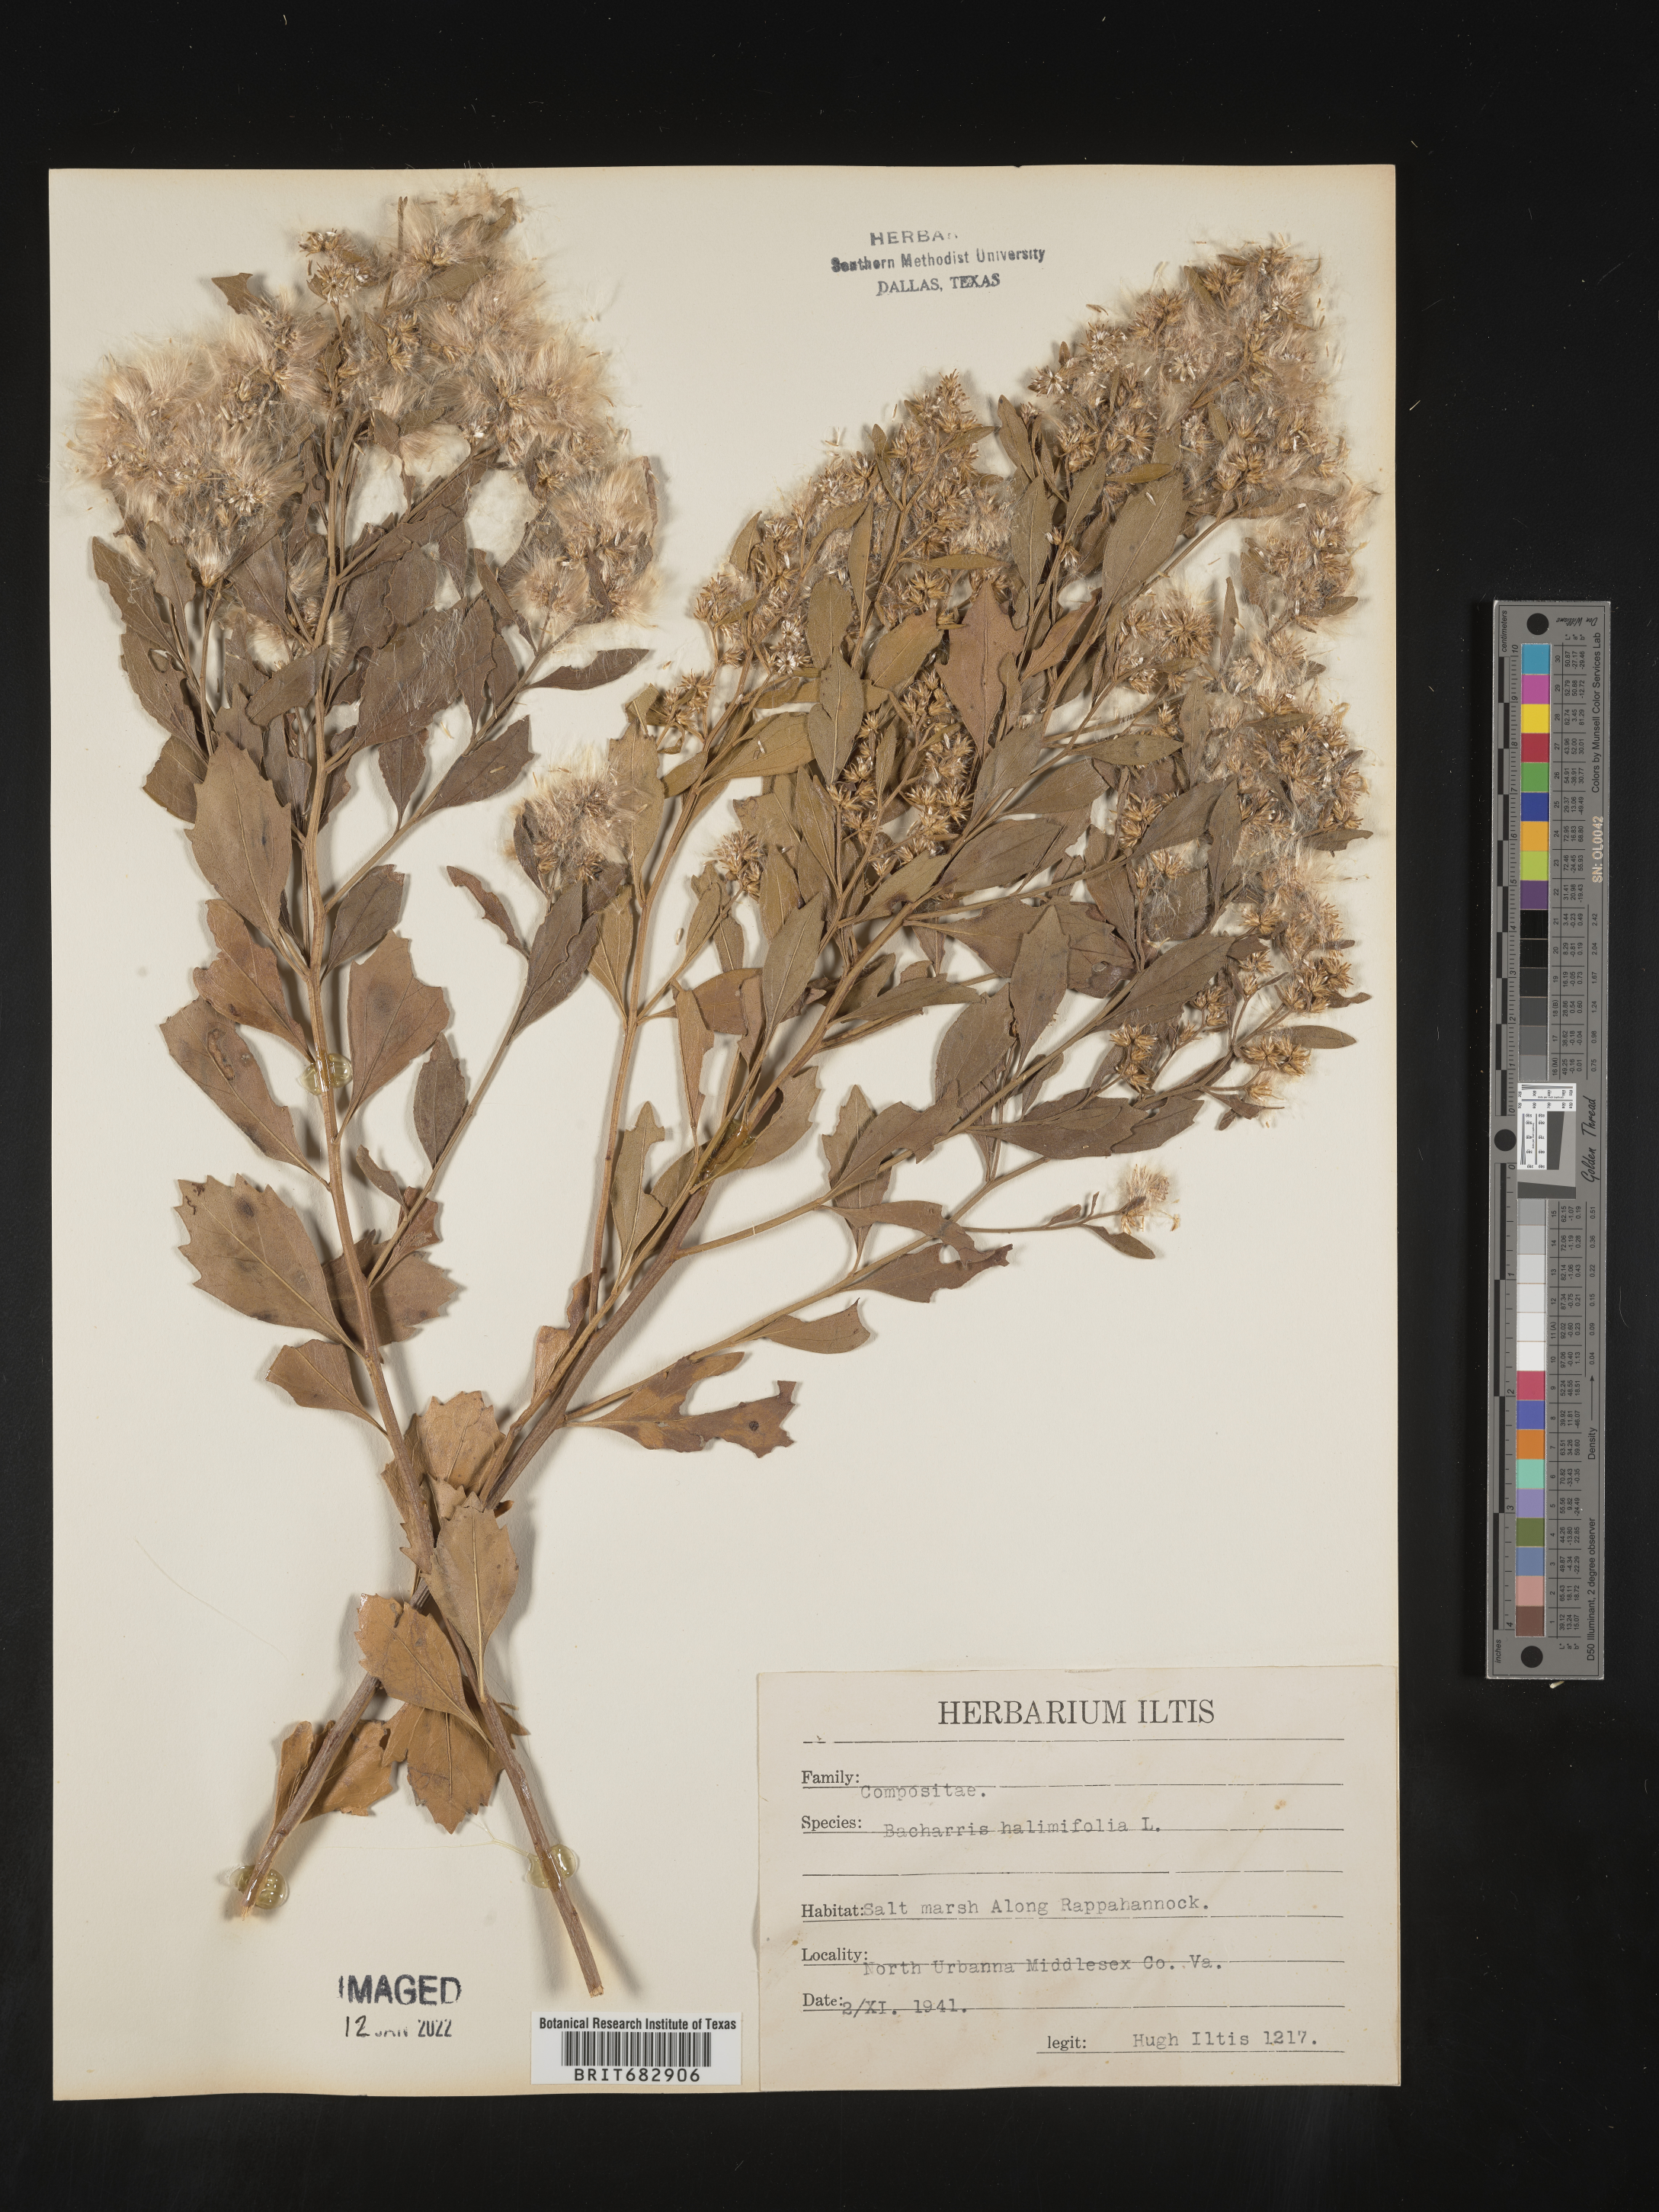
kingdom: Plantae
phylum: Tracheophyta
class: Magnoliopsida
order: Asterales
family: Asteraceae
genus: Nidorella
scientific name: Nidorella ivifolia
